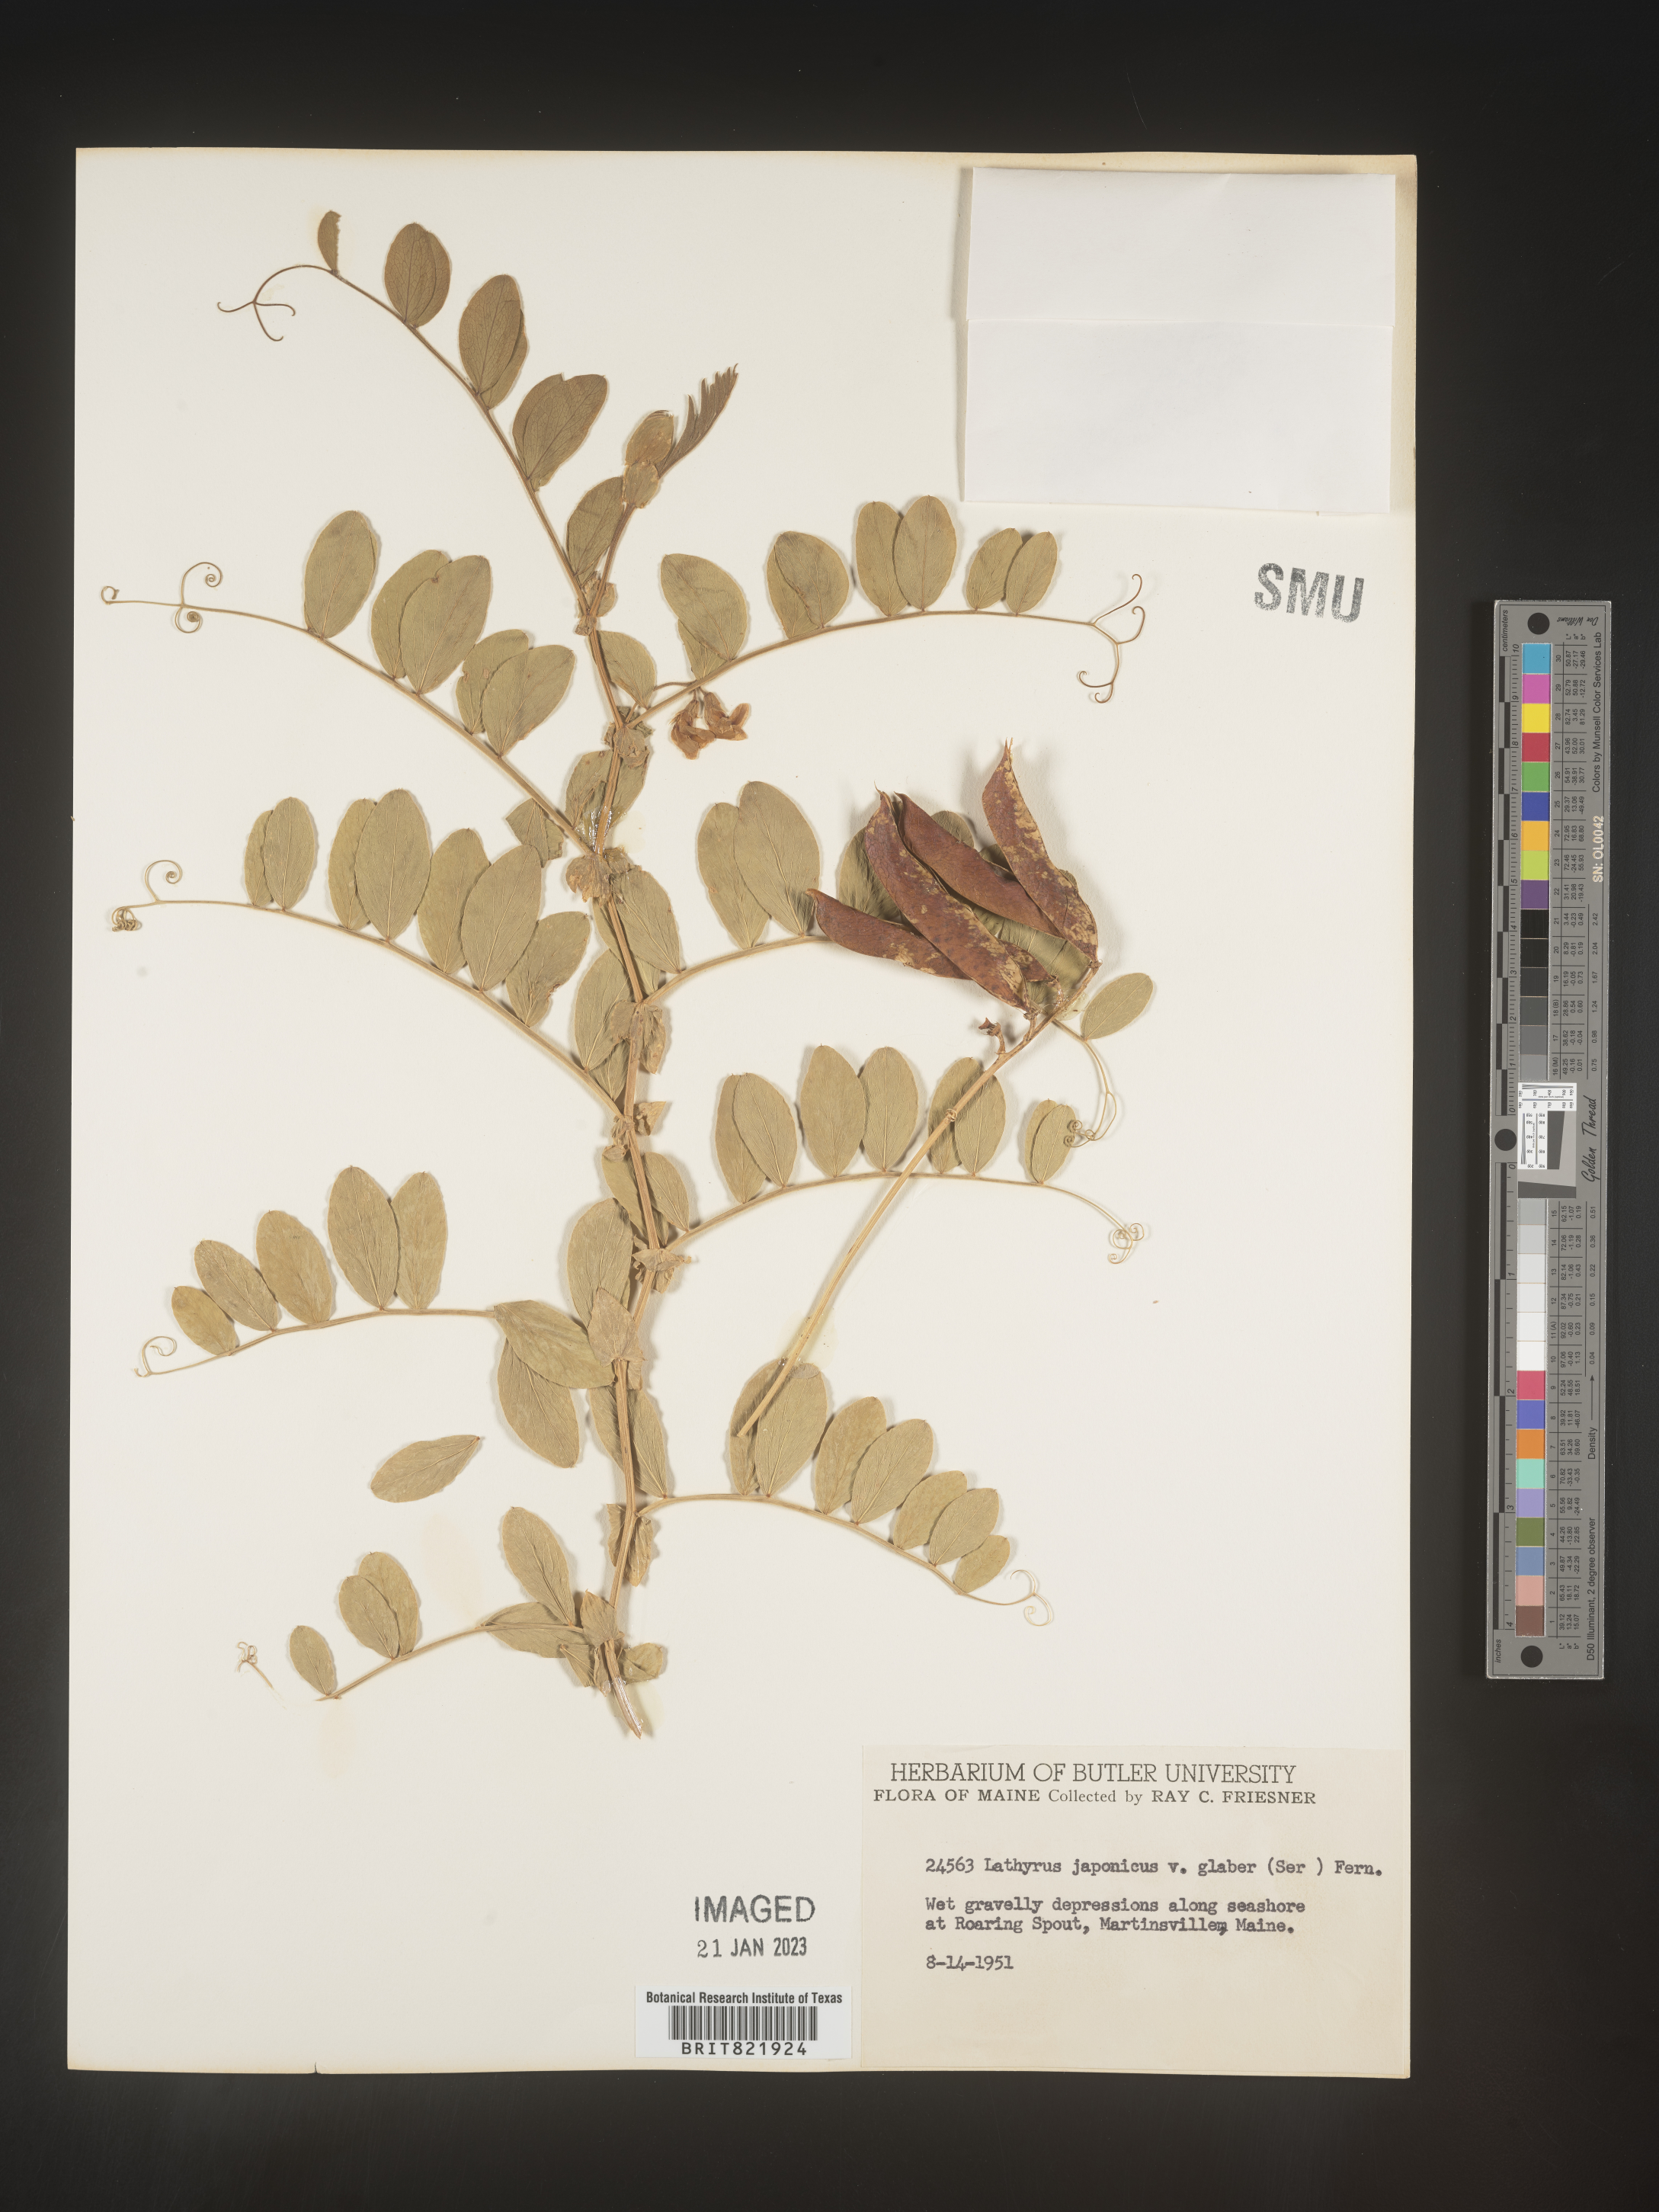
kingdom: Plantae
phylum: Tracheophyta
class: Magnoliopsida
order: Fabales
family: Fabaceae
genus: Lathyrus
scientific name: Lathyrus
